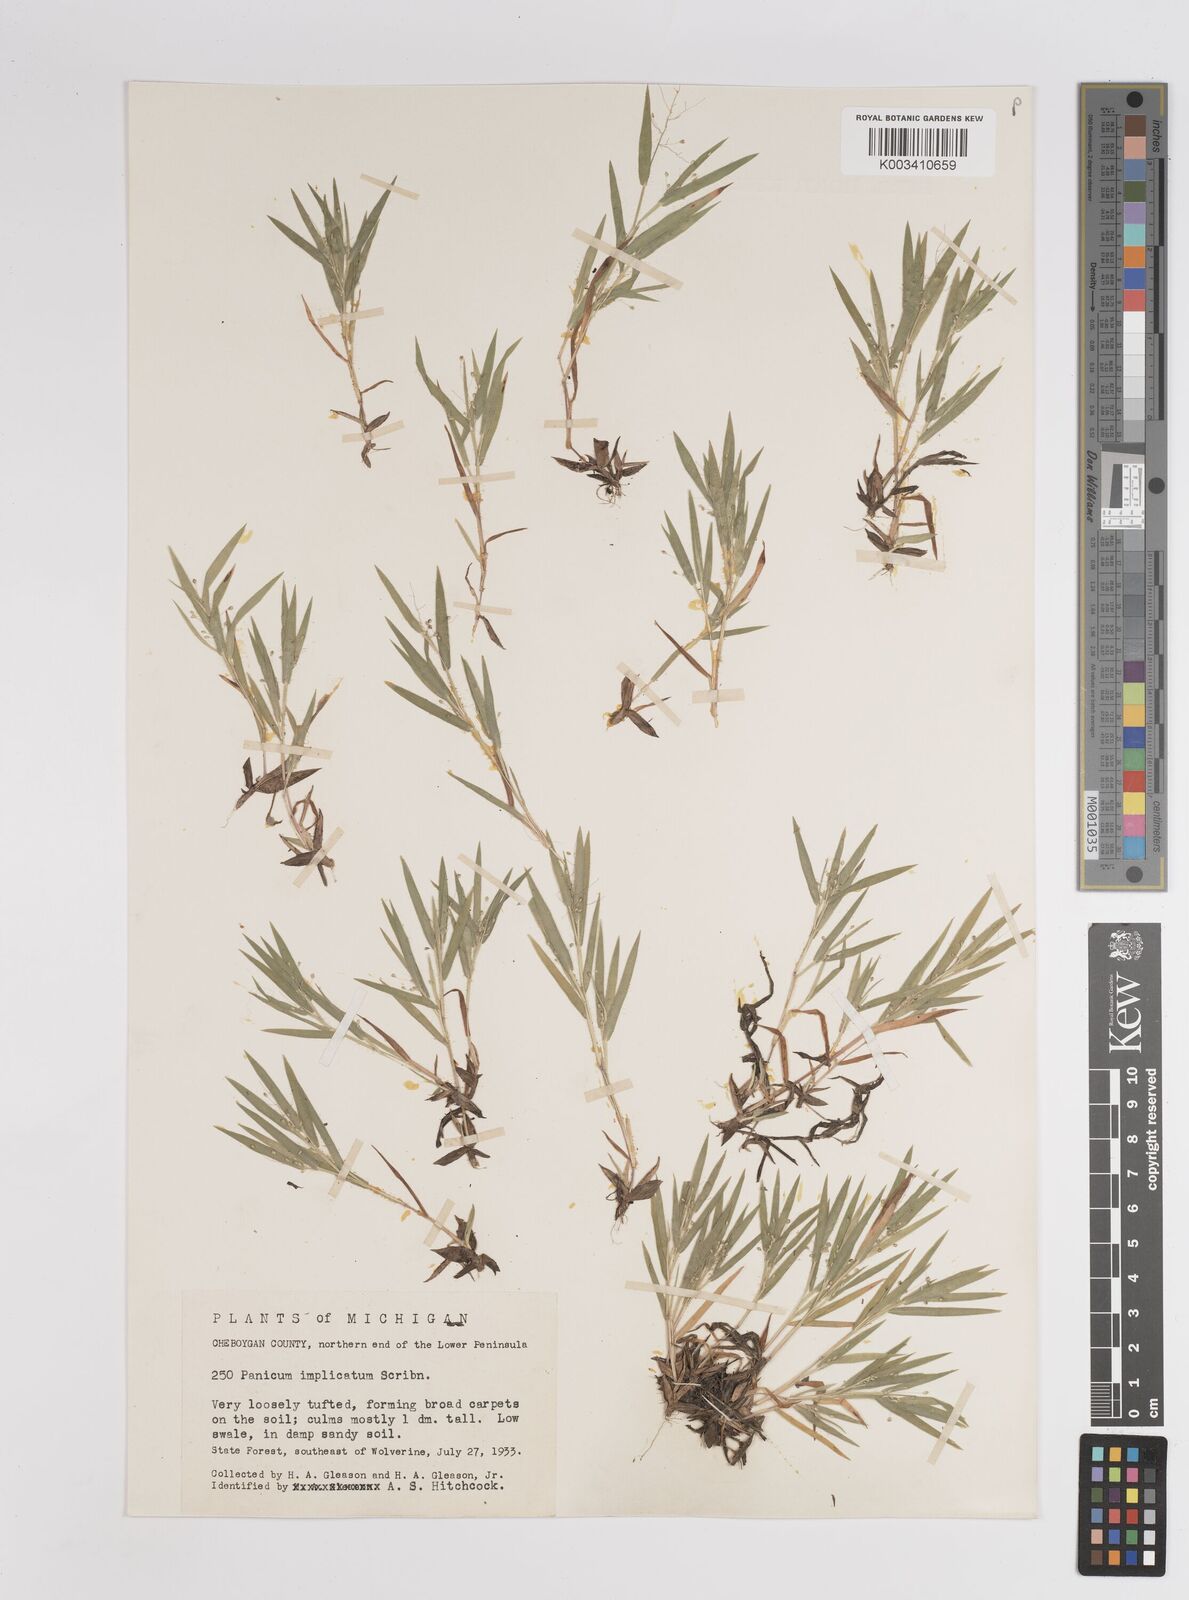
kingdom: Plantae
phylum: Tracheophyta
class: Liliopsida
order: Poales
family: Poaceae
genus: Dichanthelium
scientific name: Dichanthelium implicatum
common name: Slender-stemmed panicgrass
